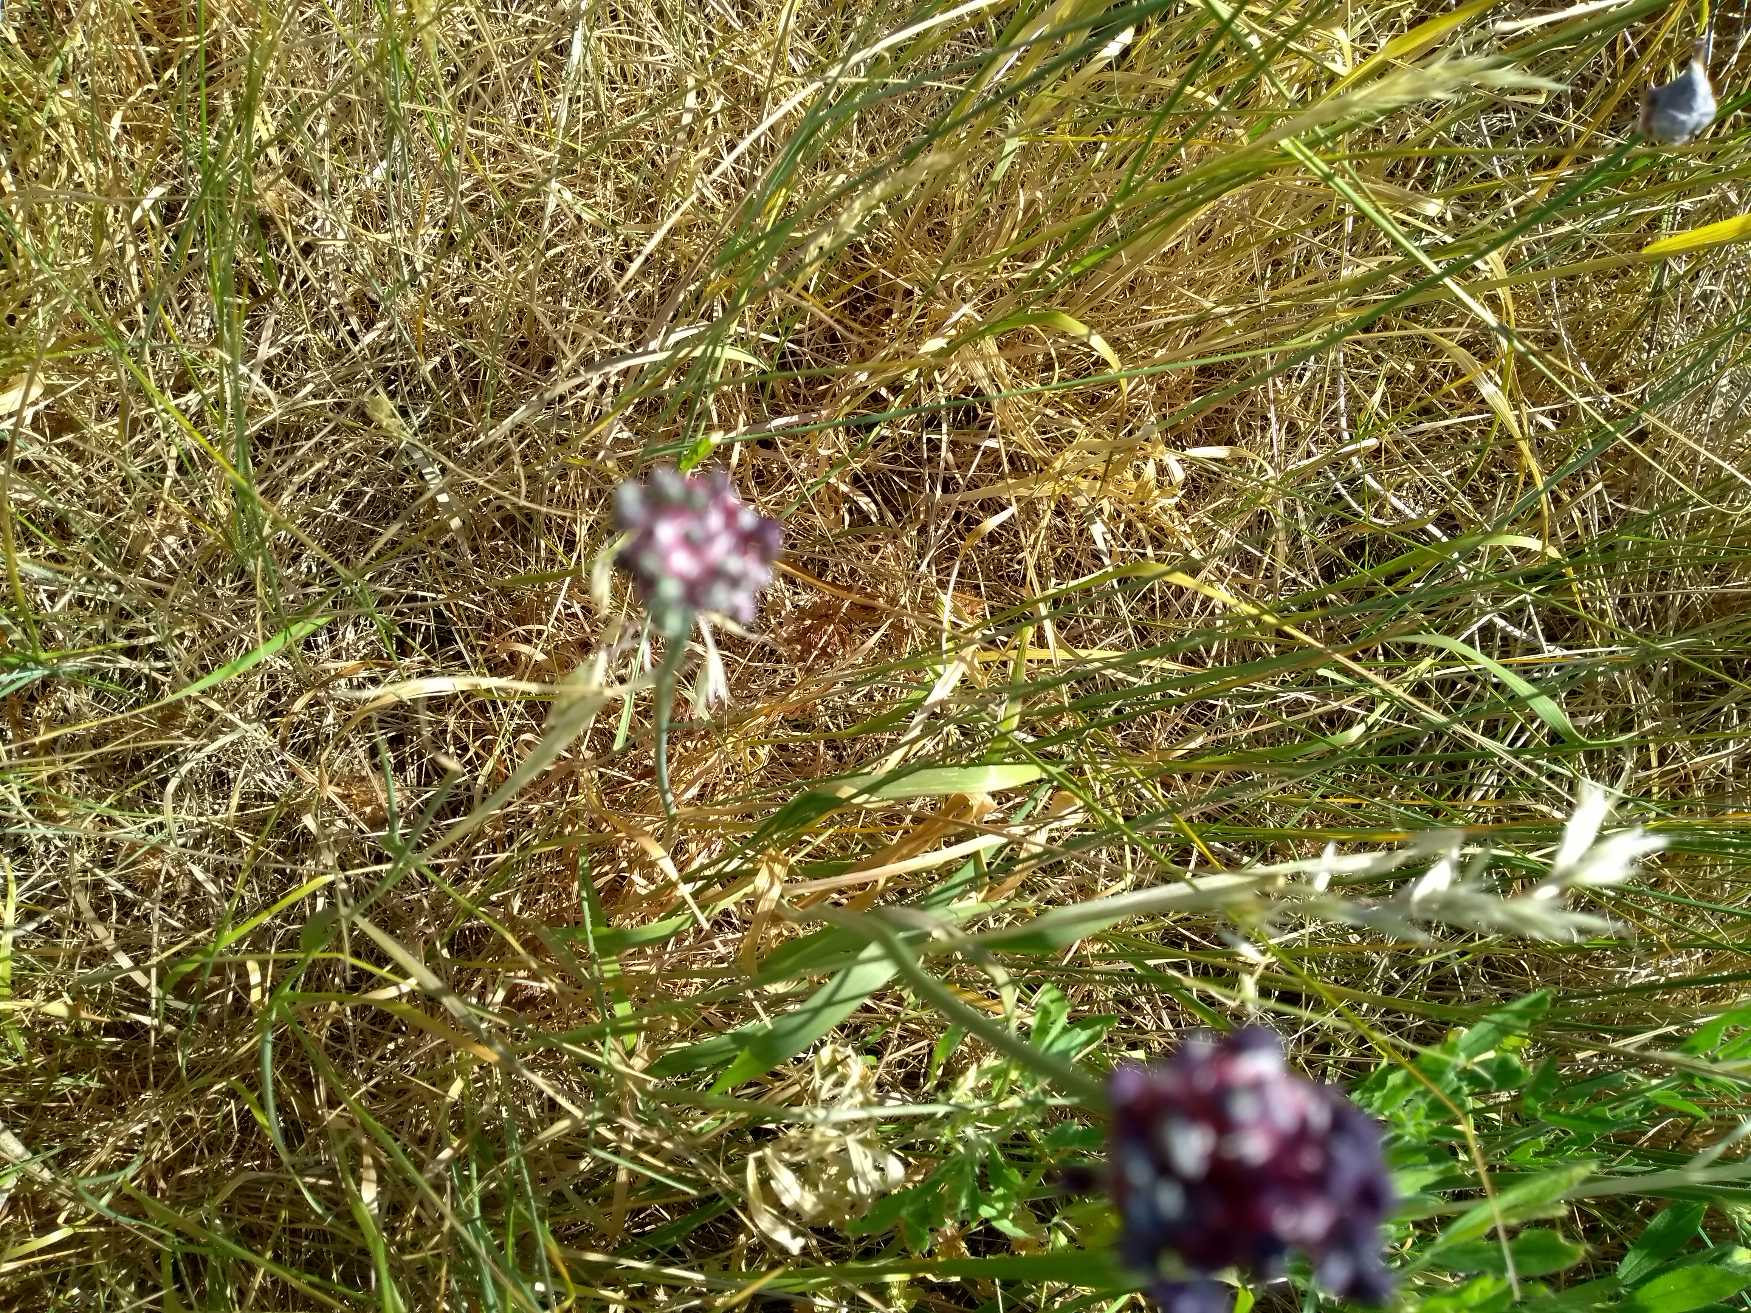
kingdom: Plantae
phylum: Tracheophyta
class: Liliopsida
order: Asparagales
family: Amaryllidaceae
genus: Allium
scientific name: Allium scorodoprasum
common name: Skov-løg
